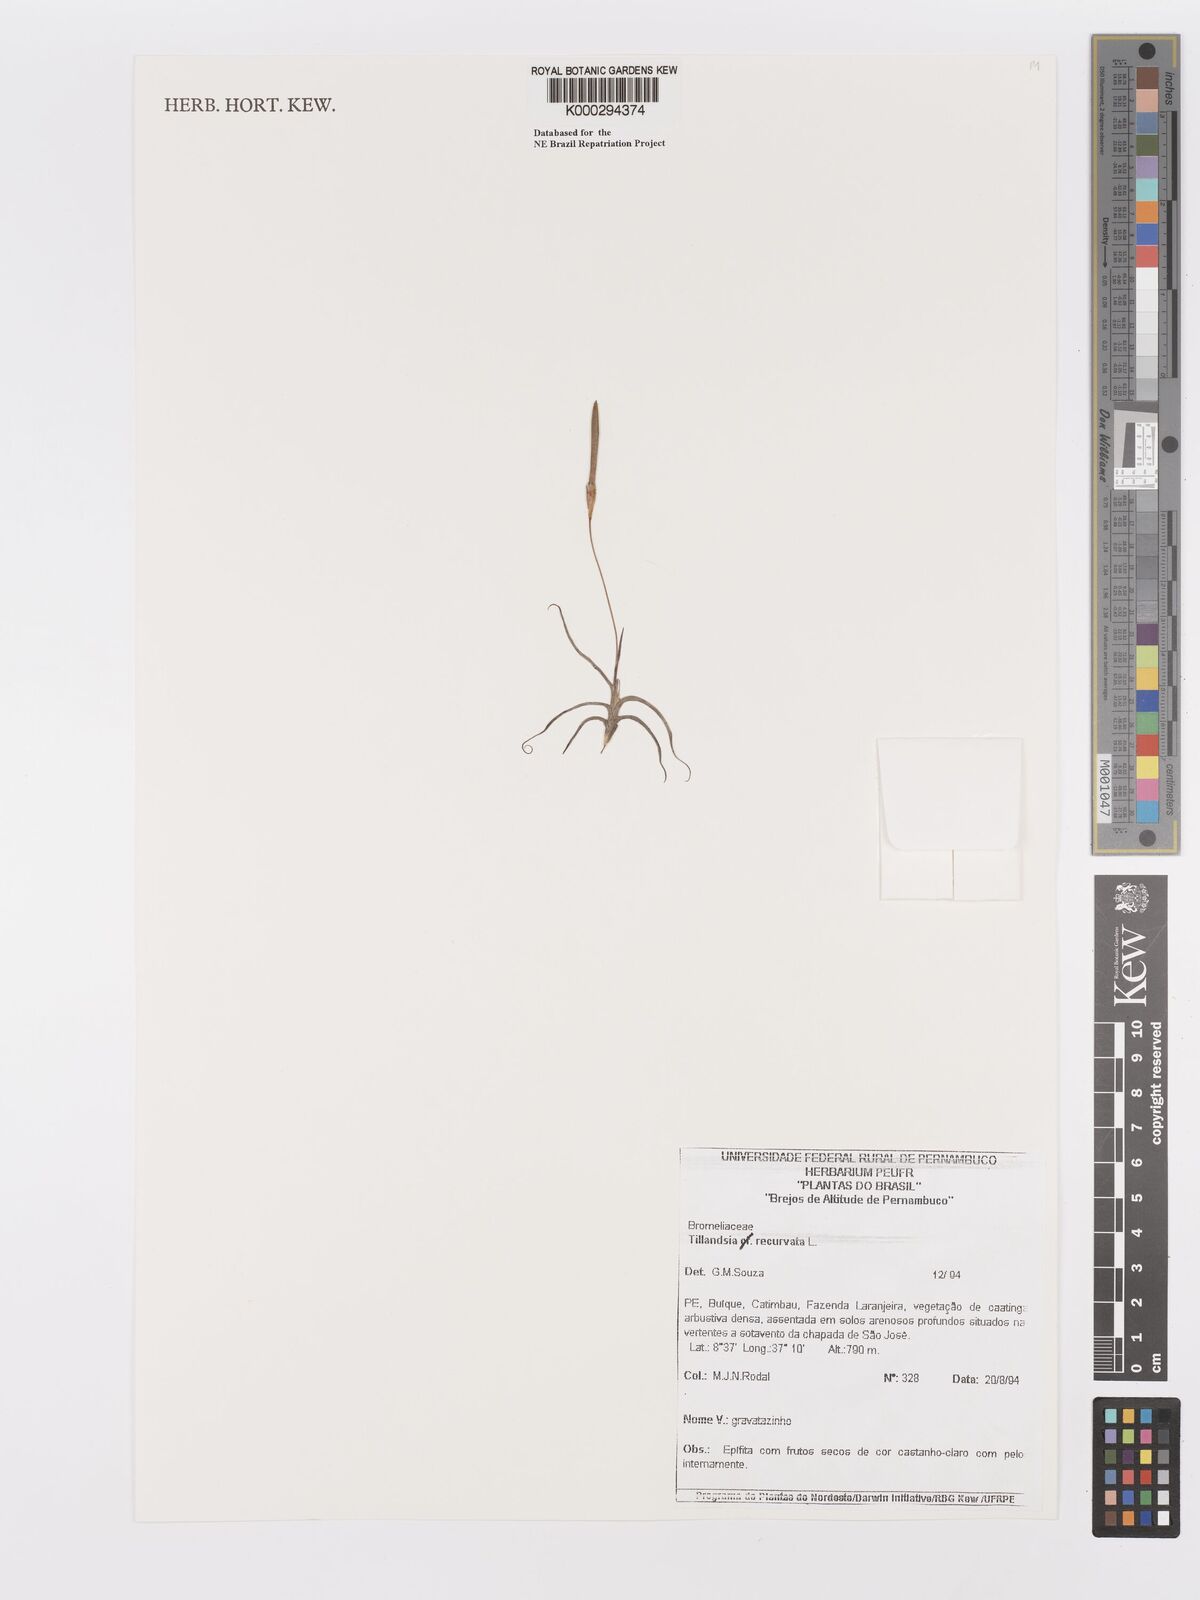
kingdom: Plantae
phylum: Tracheophyta
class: Liliopsida
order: Poales
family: Bromeliaceae
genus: Tillandsia
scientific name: Tillandsia recurvata
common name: Small ballmoss
